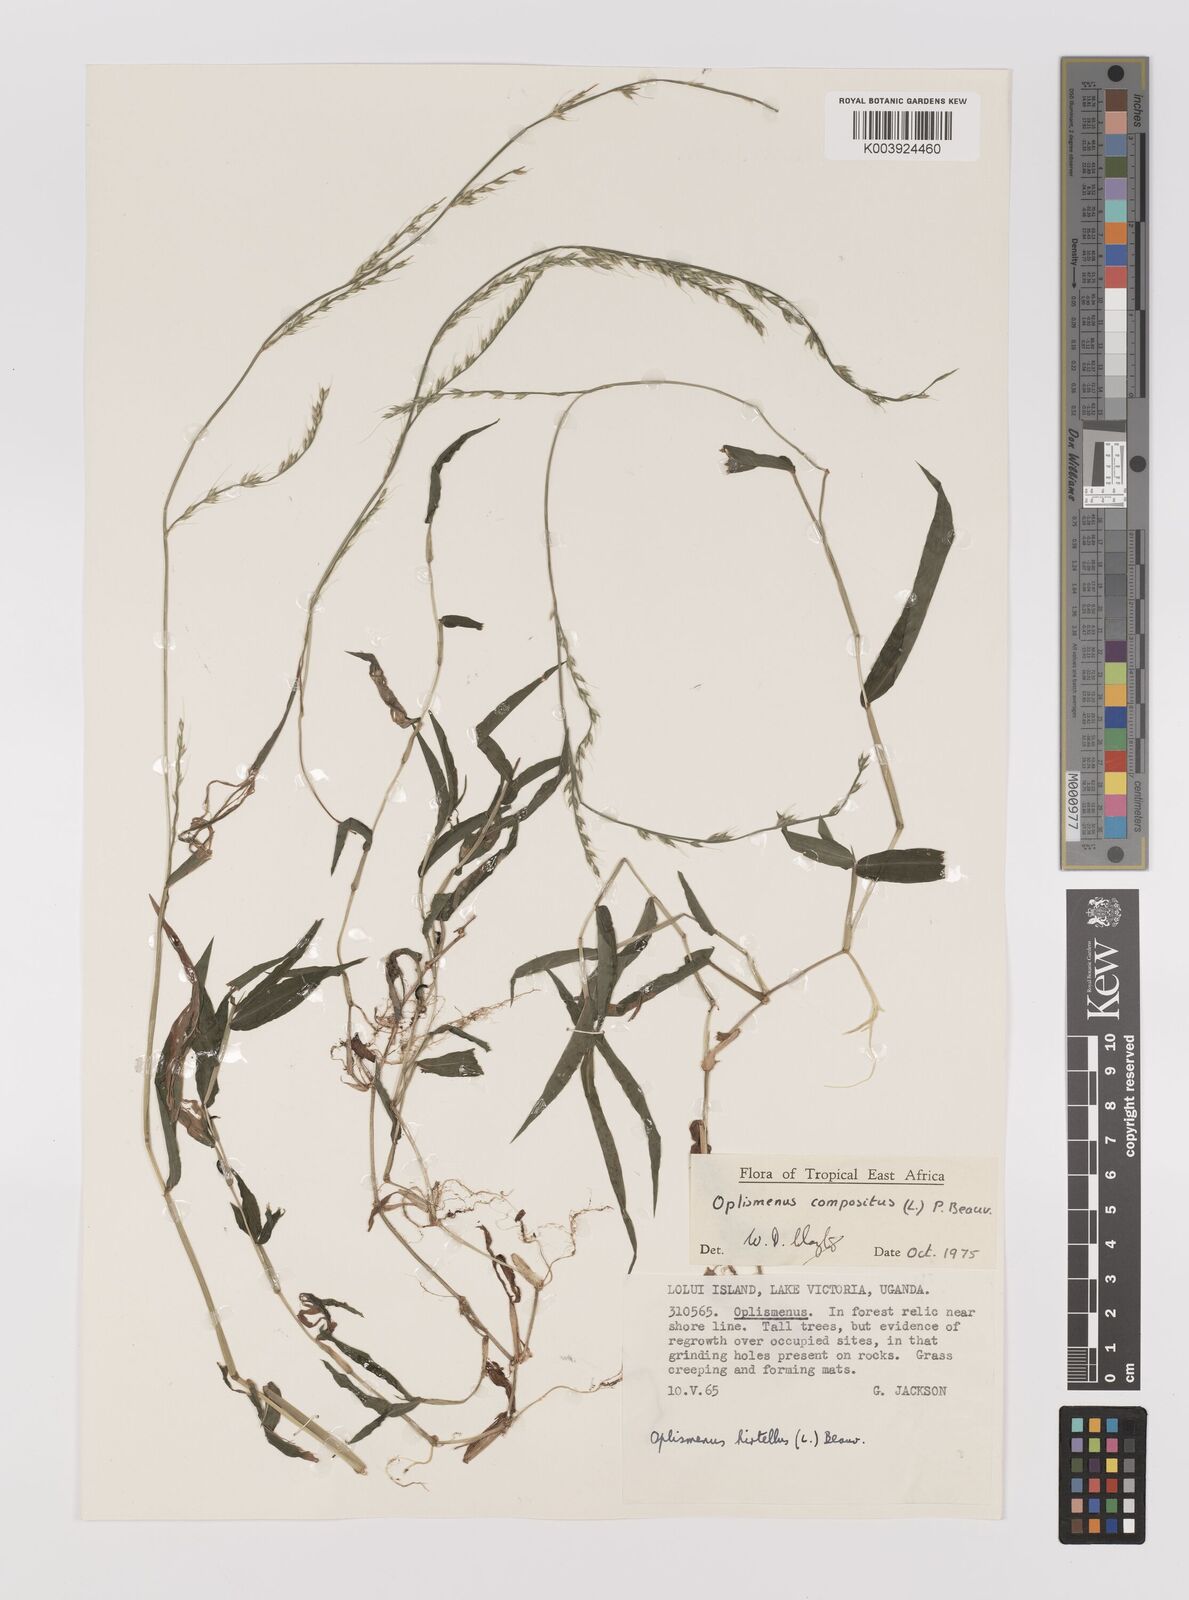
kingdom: Plantae
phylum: Tracheophyta
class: Liliopsida
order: Poales
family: Poaceae
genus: Oplismenus
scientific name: Oplismenus compositus
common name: Running mountain grass
